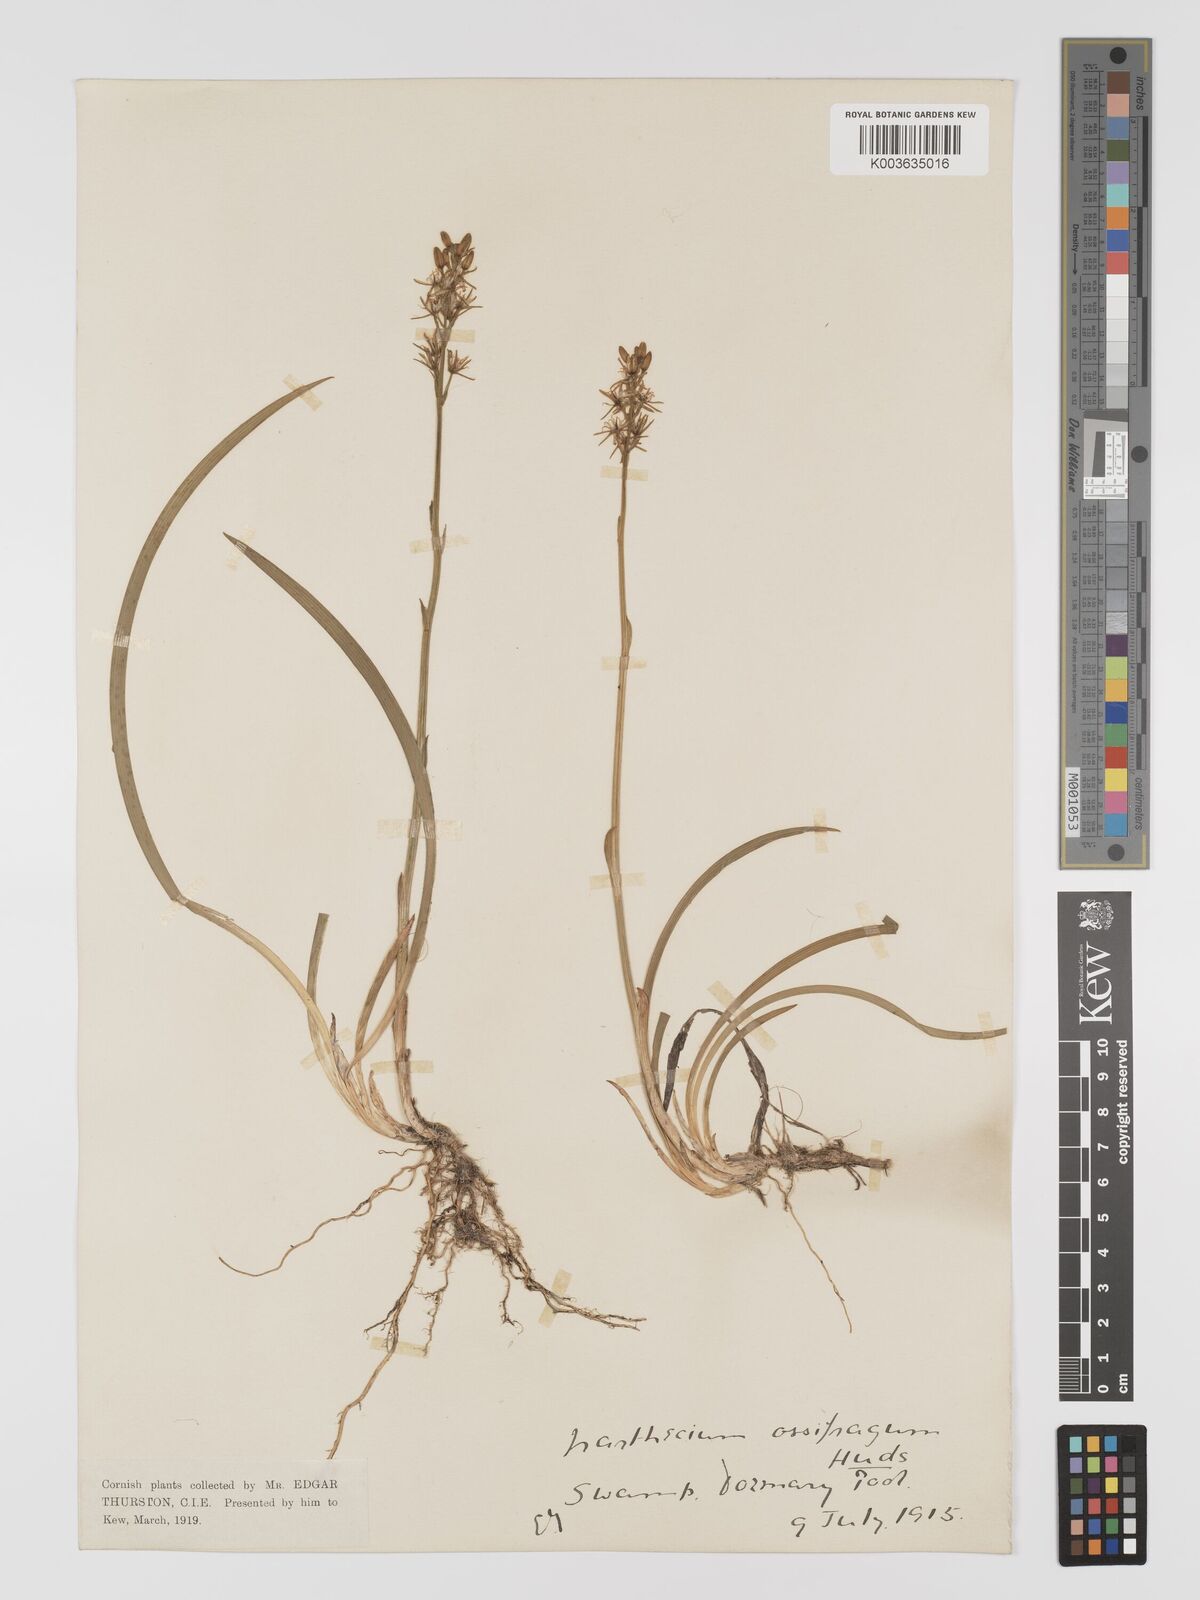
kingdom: Plantae
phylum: Tracheophyta
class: Liliopsida
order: Dioscoreales
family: Nartheciaceae
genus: Narthecium
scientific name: Narthecium ossifragum
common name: Bog asphodel
